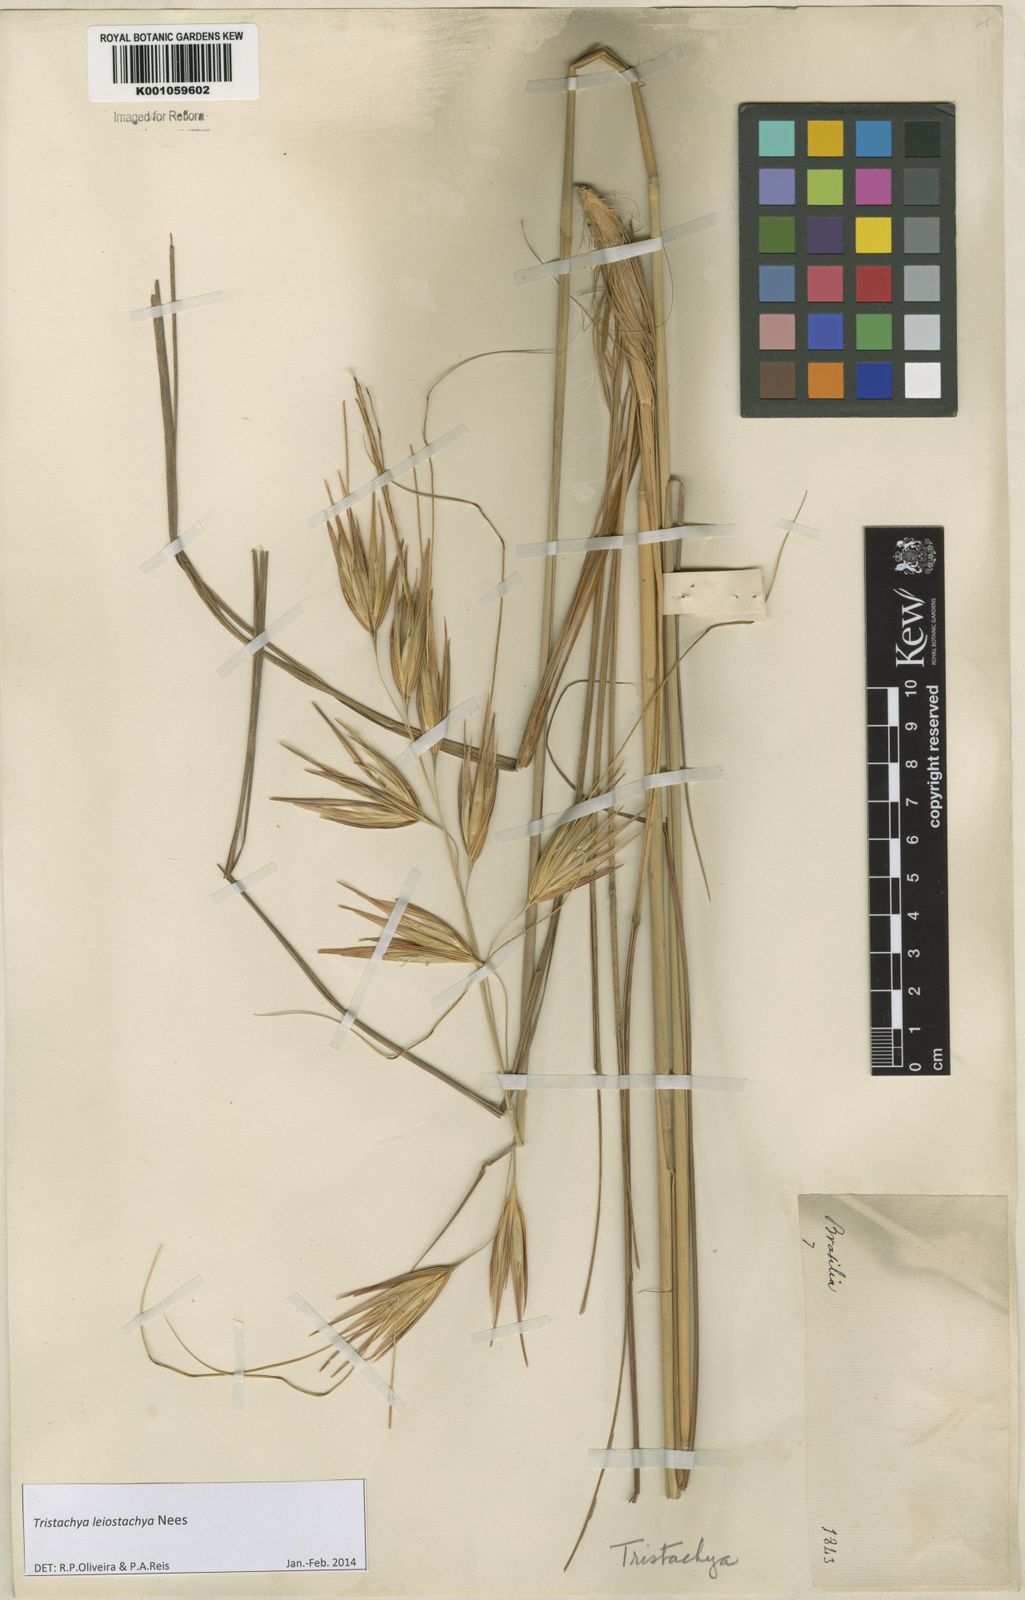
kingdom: Plantae
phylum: Tracheophyta
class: Liliopsida
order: Poales
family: Poaceae
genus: Tristachya
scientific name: Tristachya leiostachya
